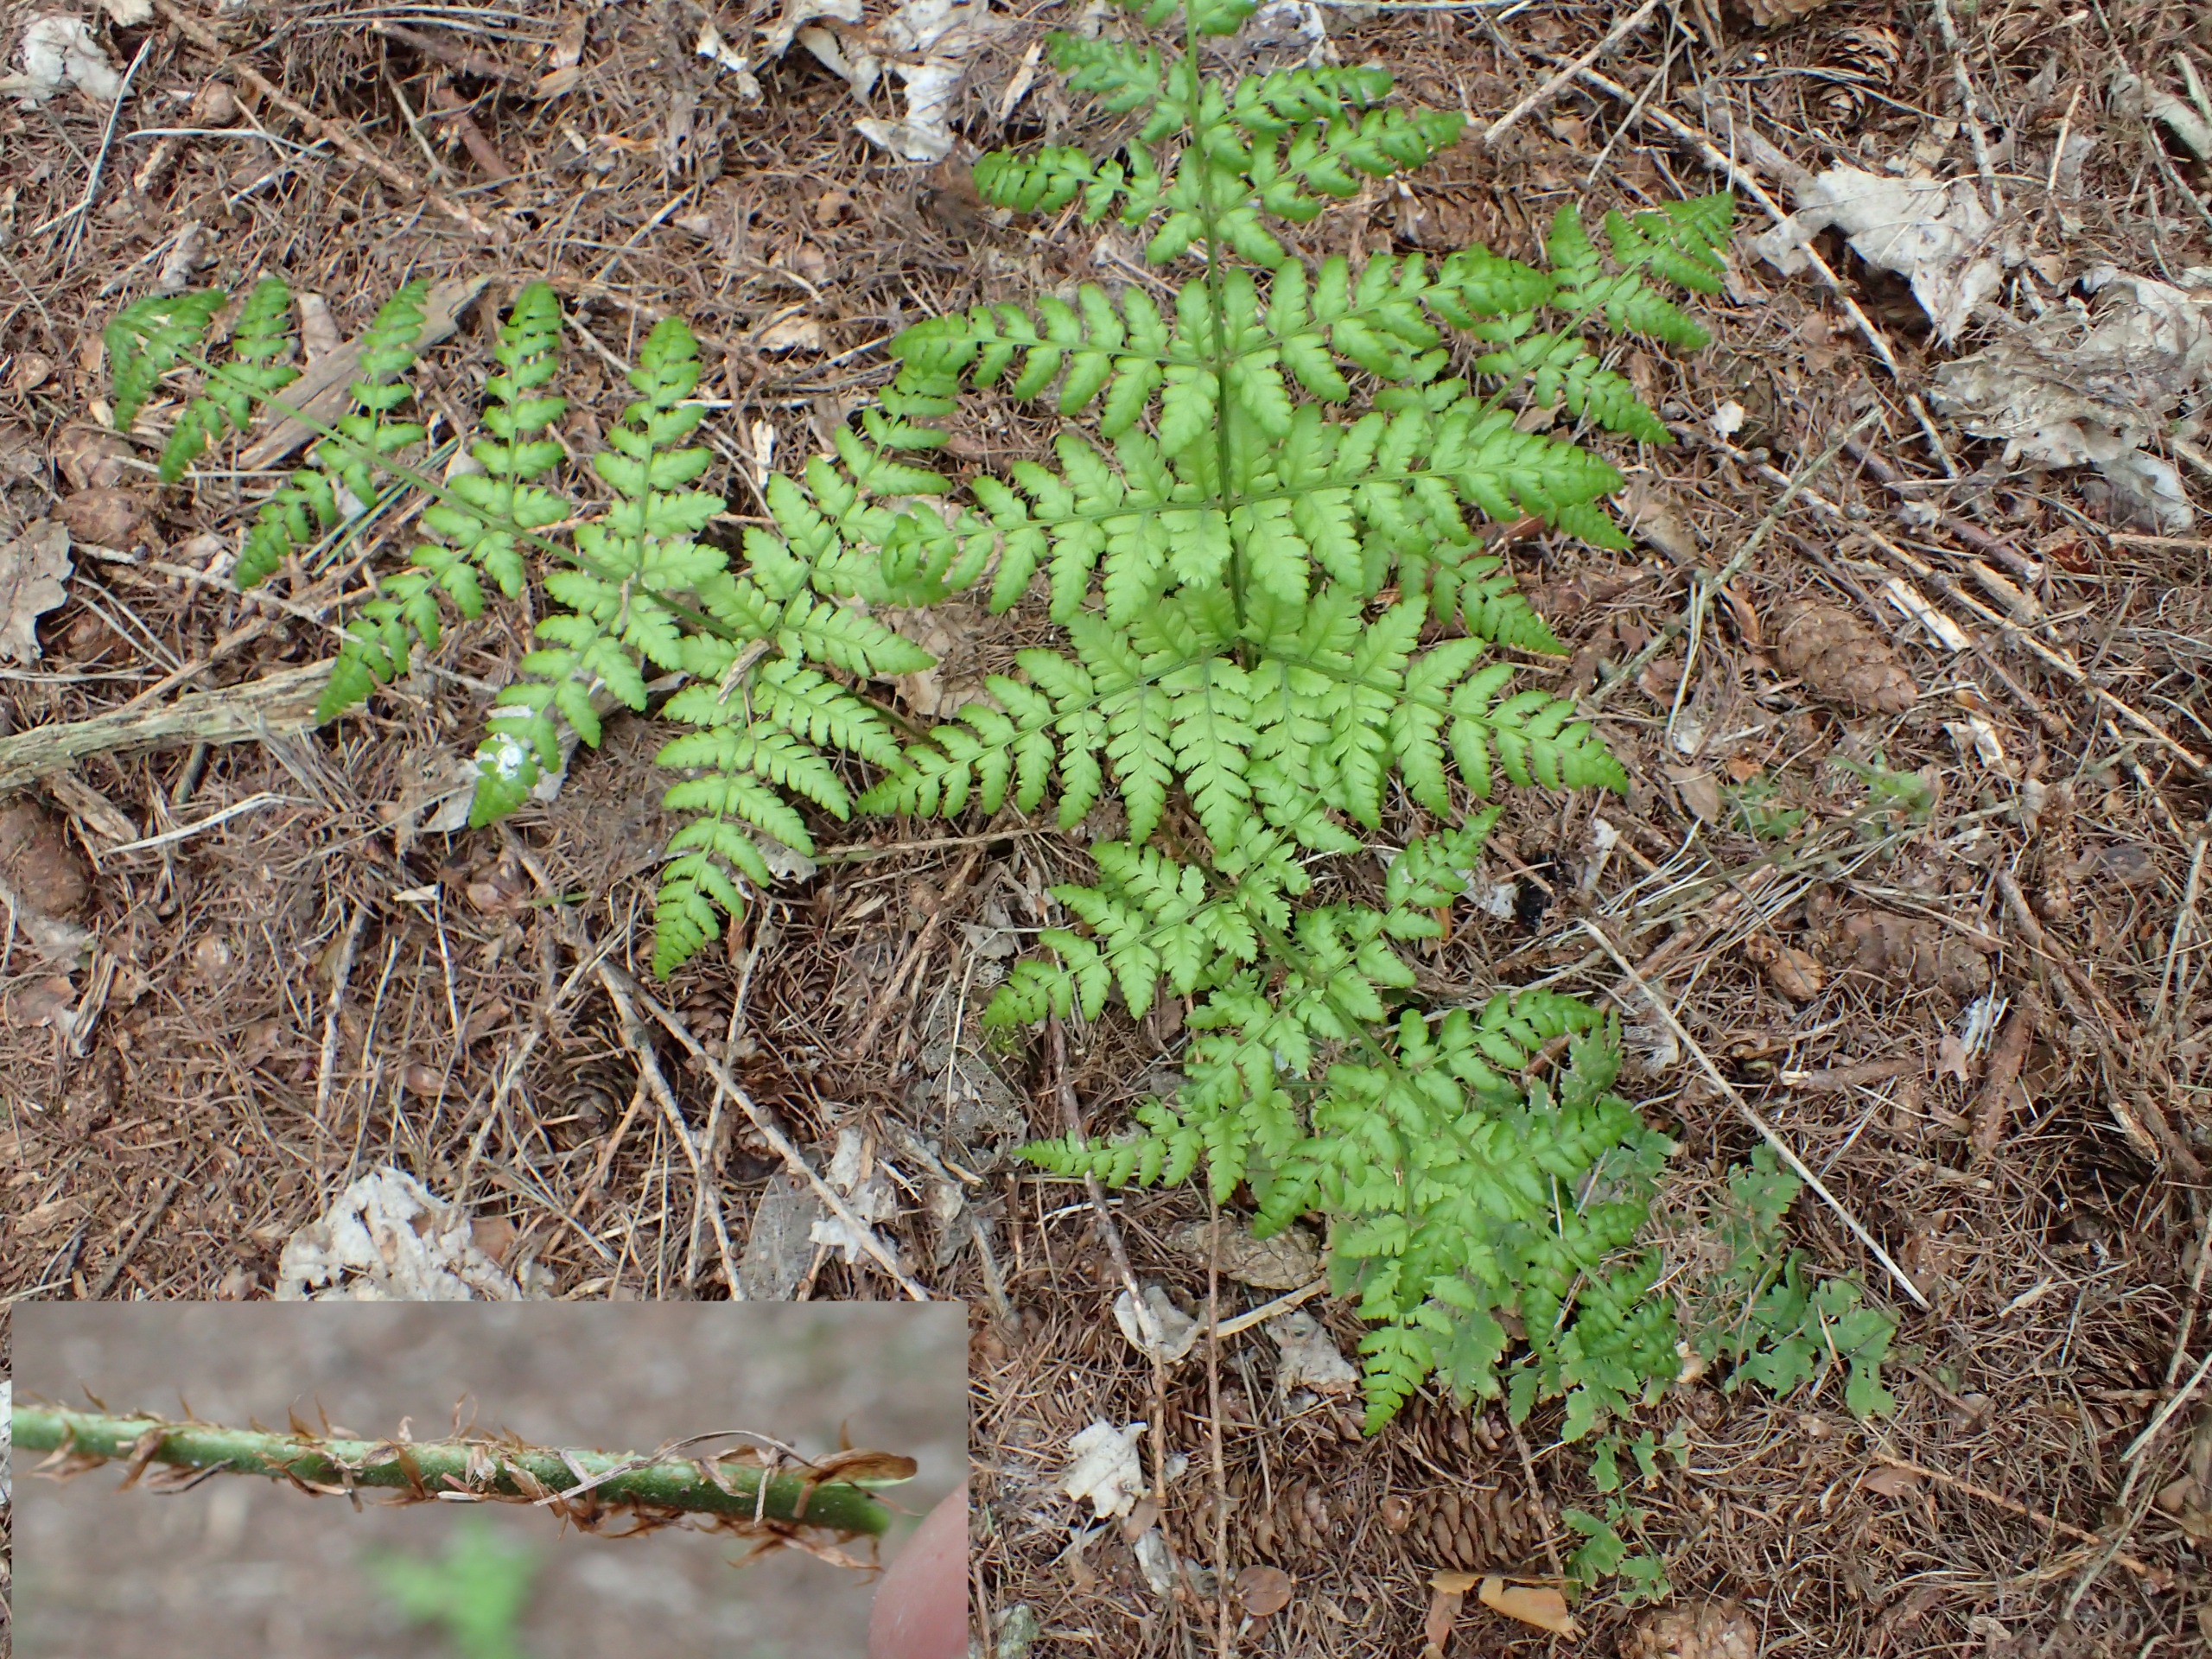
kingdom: Plantae
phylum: Tracheophyta
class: Polypodiopsida
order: Polypodiales
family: Dryopteridaceae
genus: Dryopteris
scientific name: Dryopteris dilatata
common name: Bredbladet mangeløv
